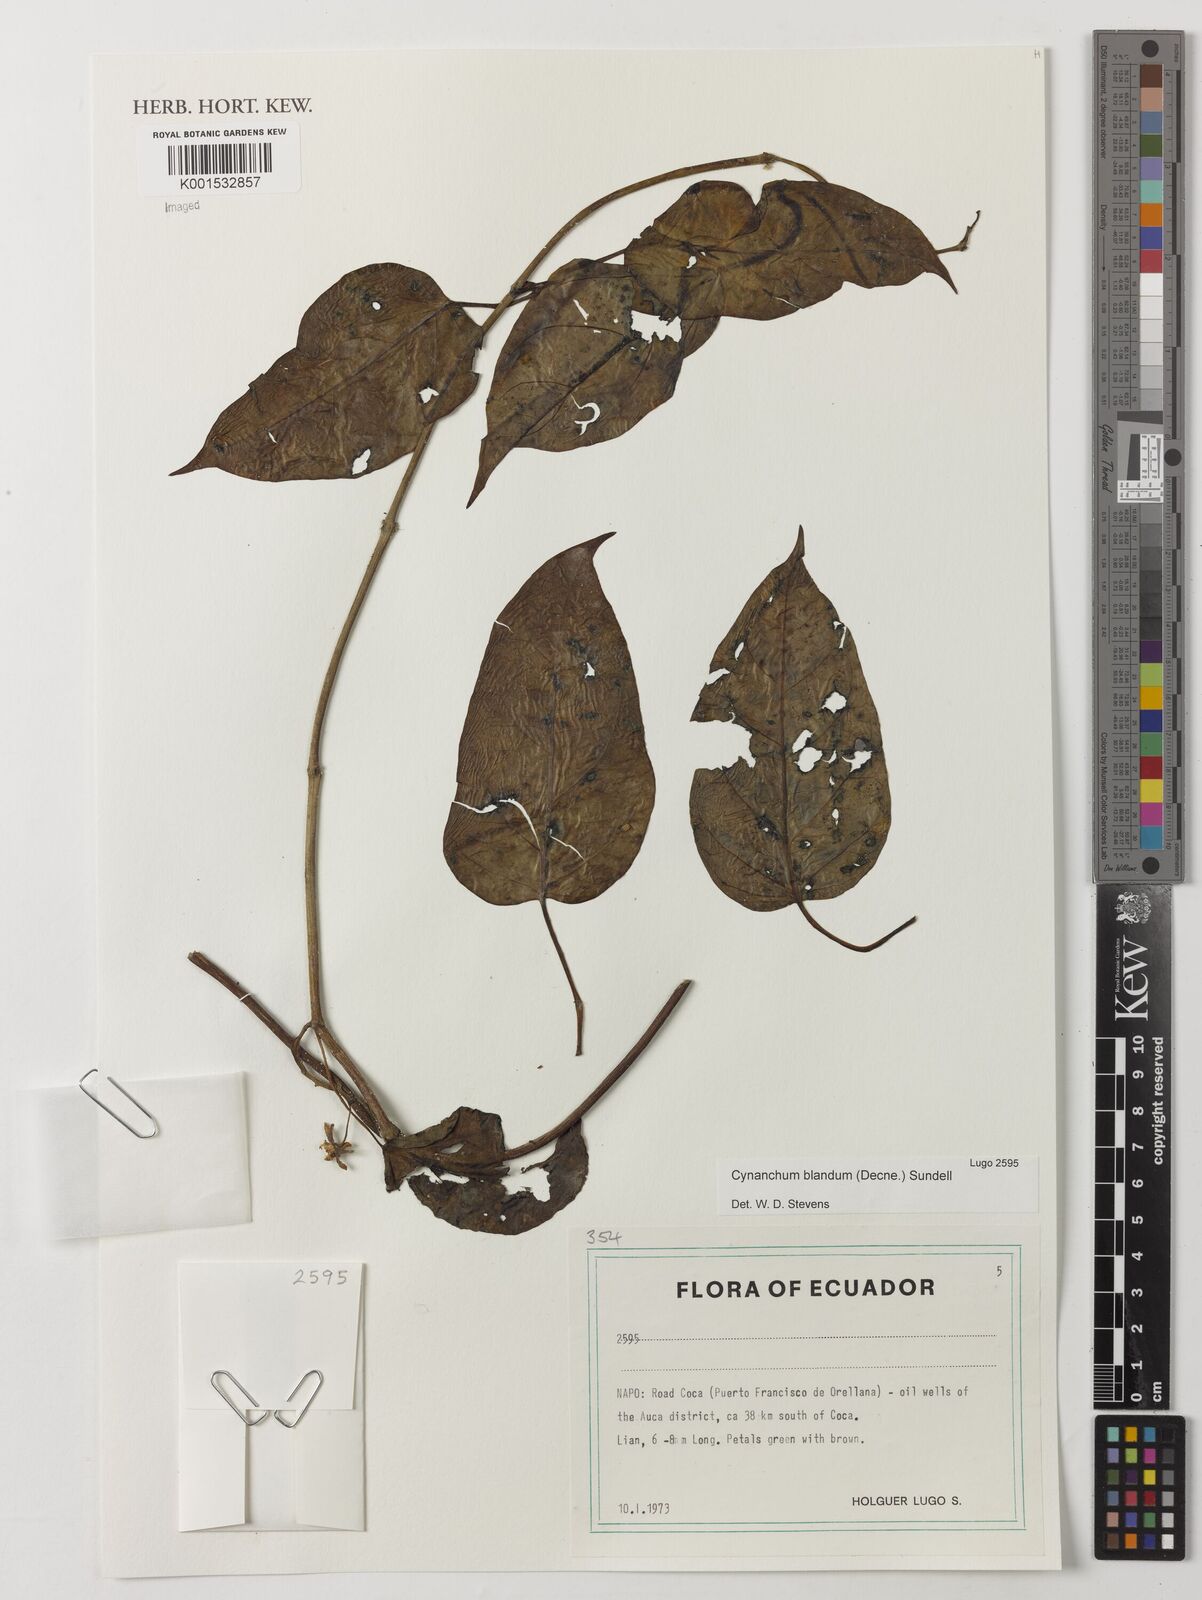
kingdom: Plantae
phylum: Tracheophyta
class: Magnoliopsida
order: Gentianales
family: Apocynaceae
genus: Cynanchum
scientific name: Cynanchum blandum
